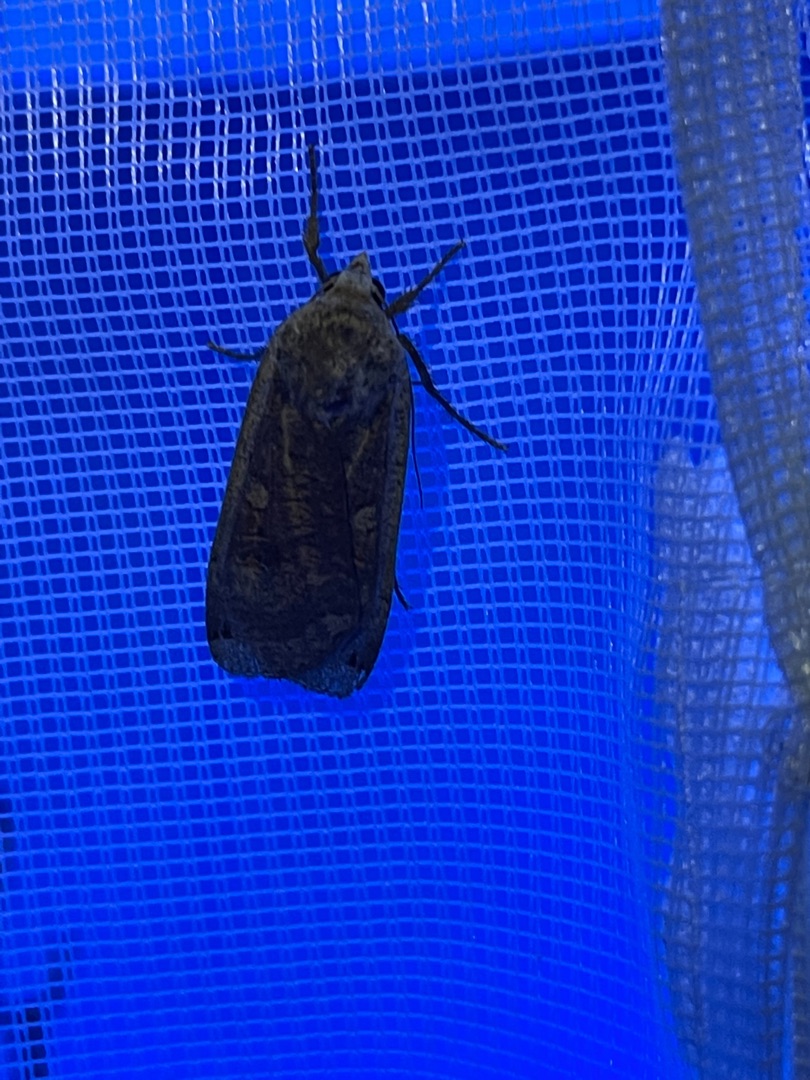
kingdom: Animalia
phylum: Arthropoda
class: Insecta
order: Lepidoptera
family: Noctuidae
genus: Noctua
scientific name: Noctua pronuba
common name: Stor smutugle
